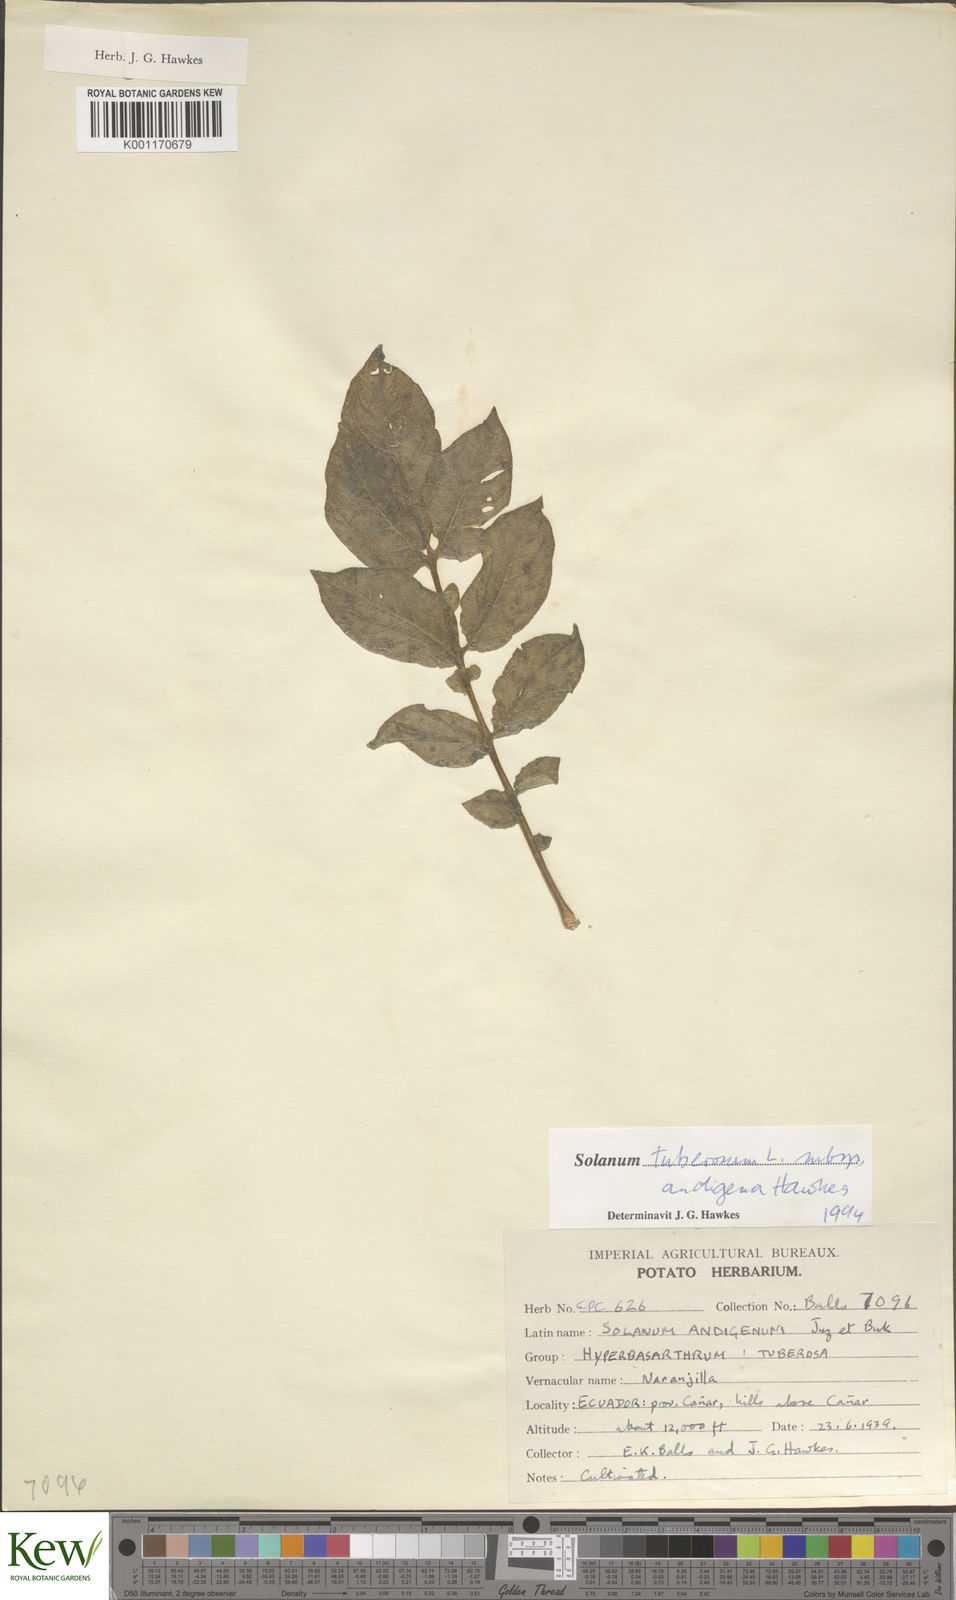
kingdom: Plantae
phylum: Tracheophyta
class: Magnoliopsida
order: Solanales
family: Solanaceae
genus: Solanum
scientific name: Solanum tuberosum
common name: Potato
